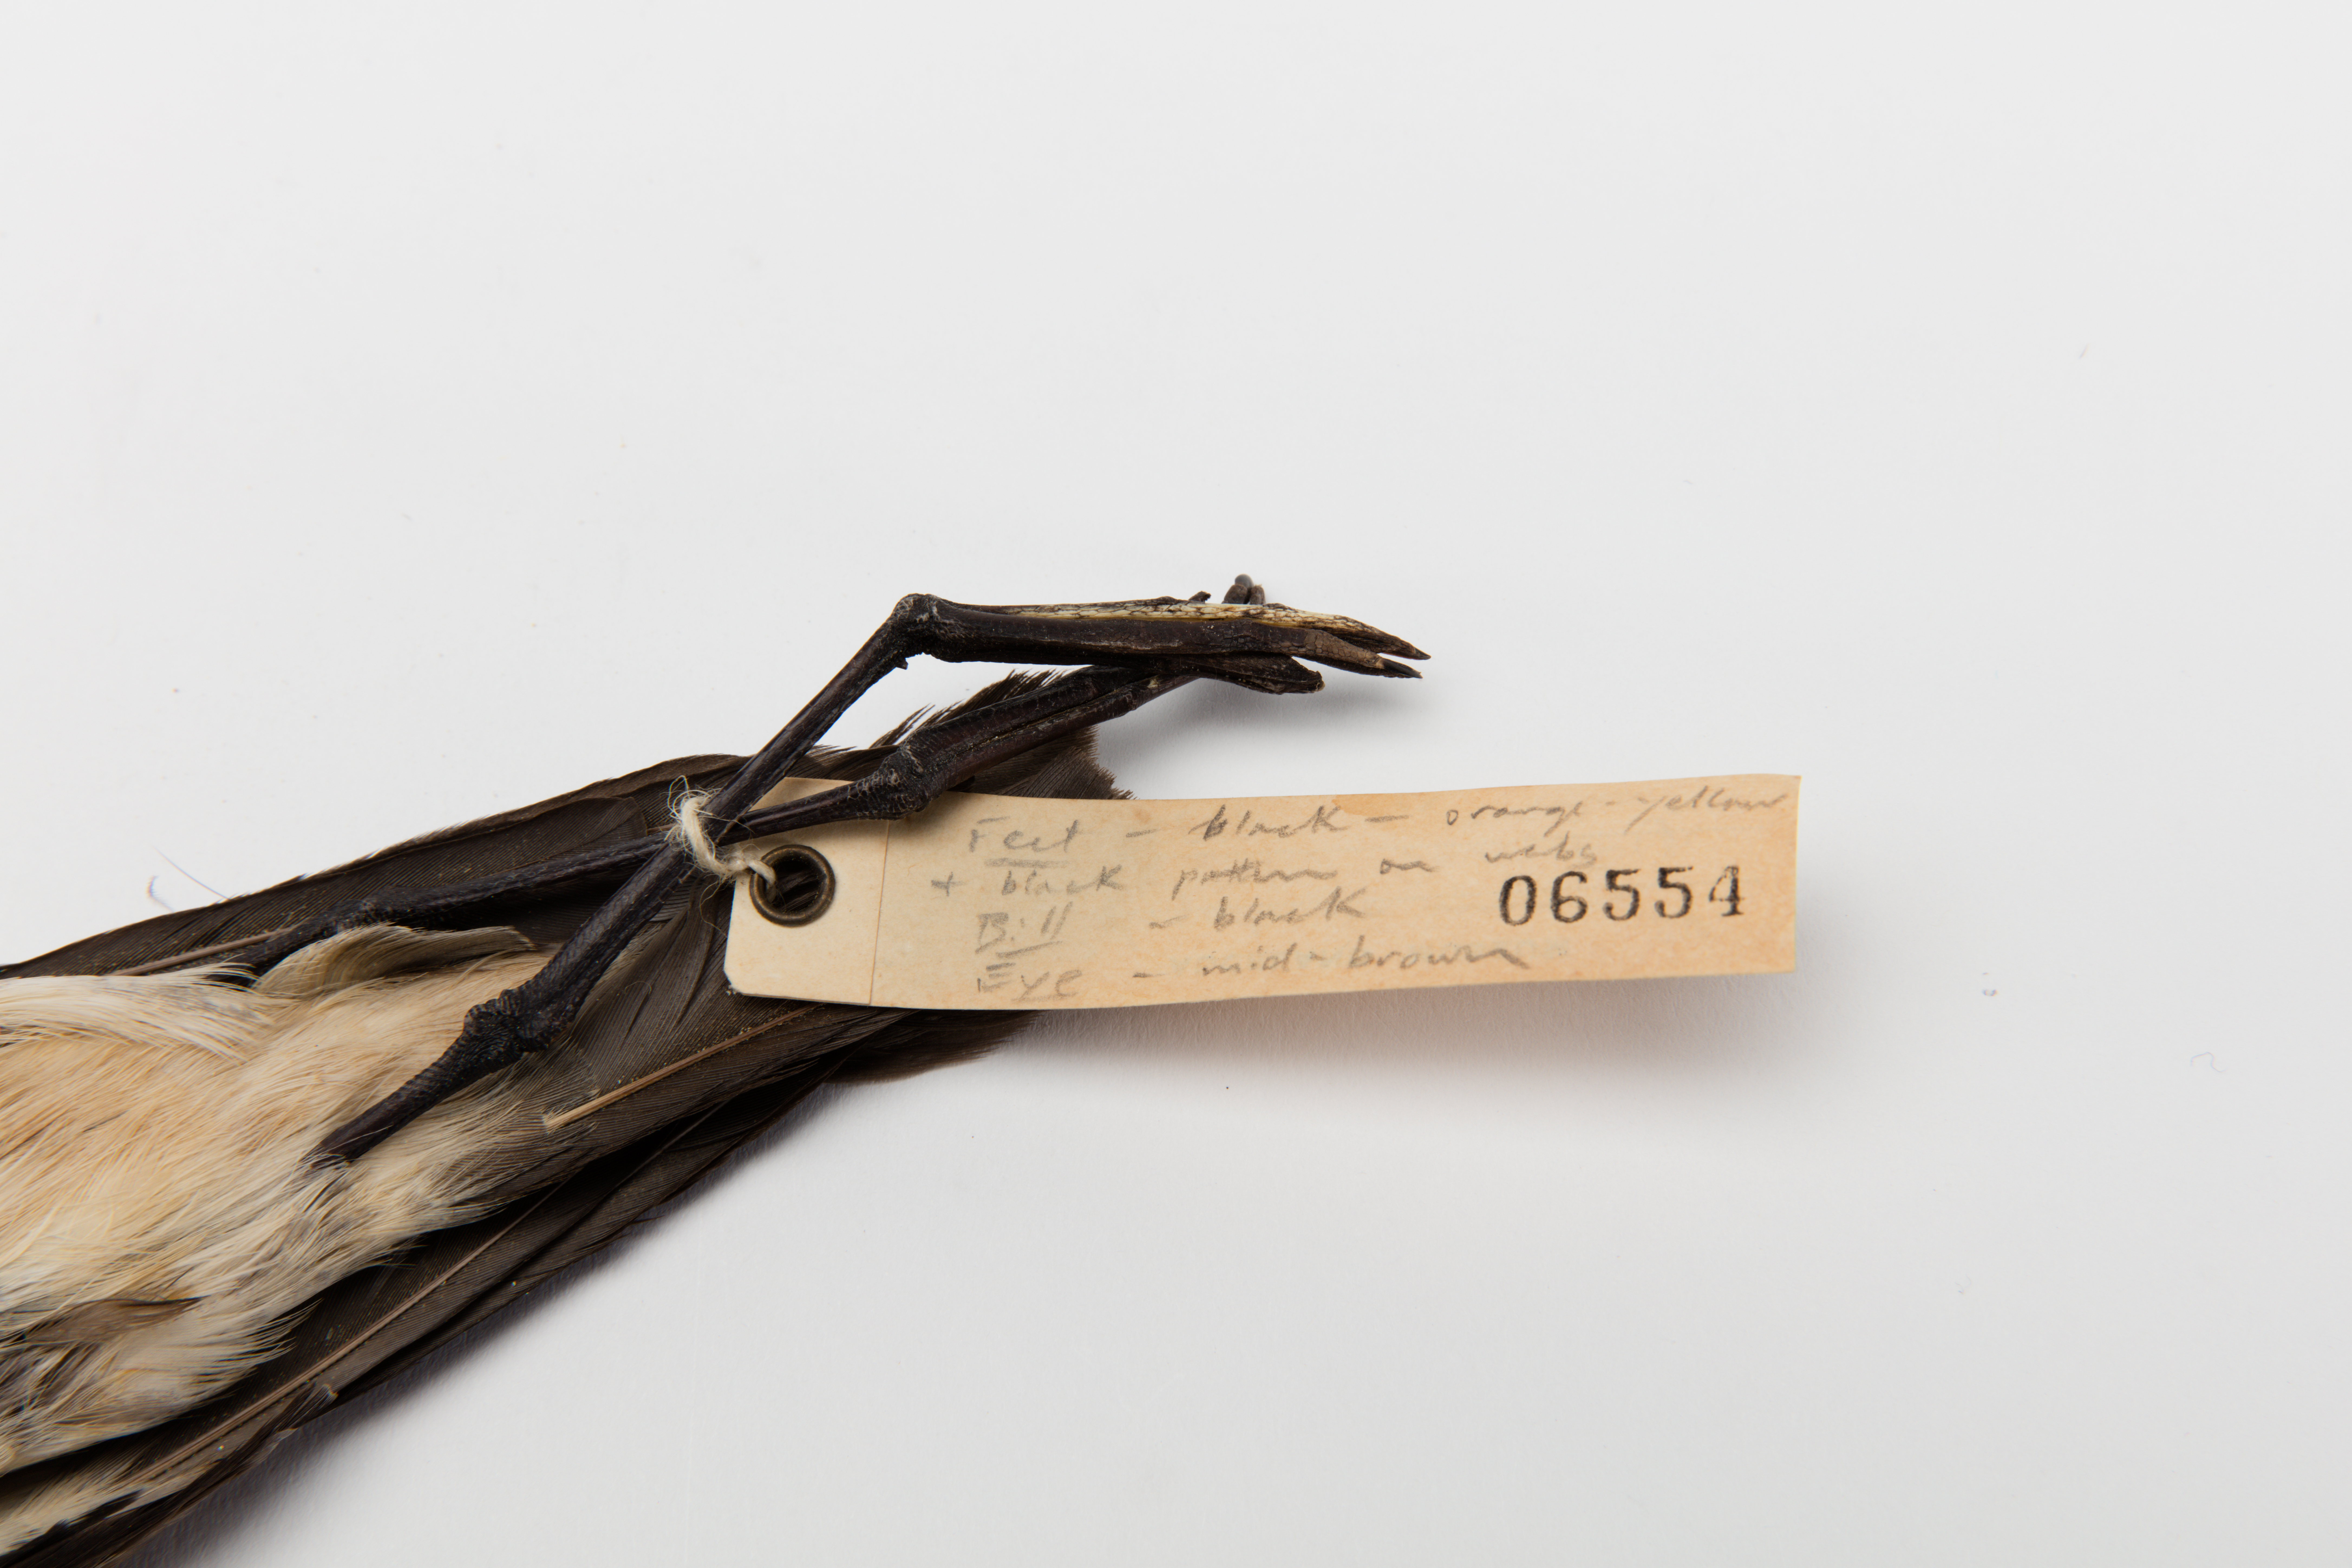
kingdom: Animalia
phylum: Chordata
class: Aves
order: Procellariiformes
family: Hydrobatidae
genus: Pelagodroma
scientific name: Pelagodroma
